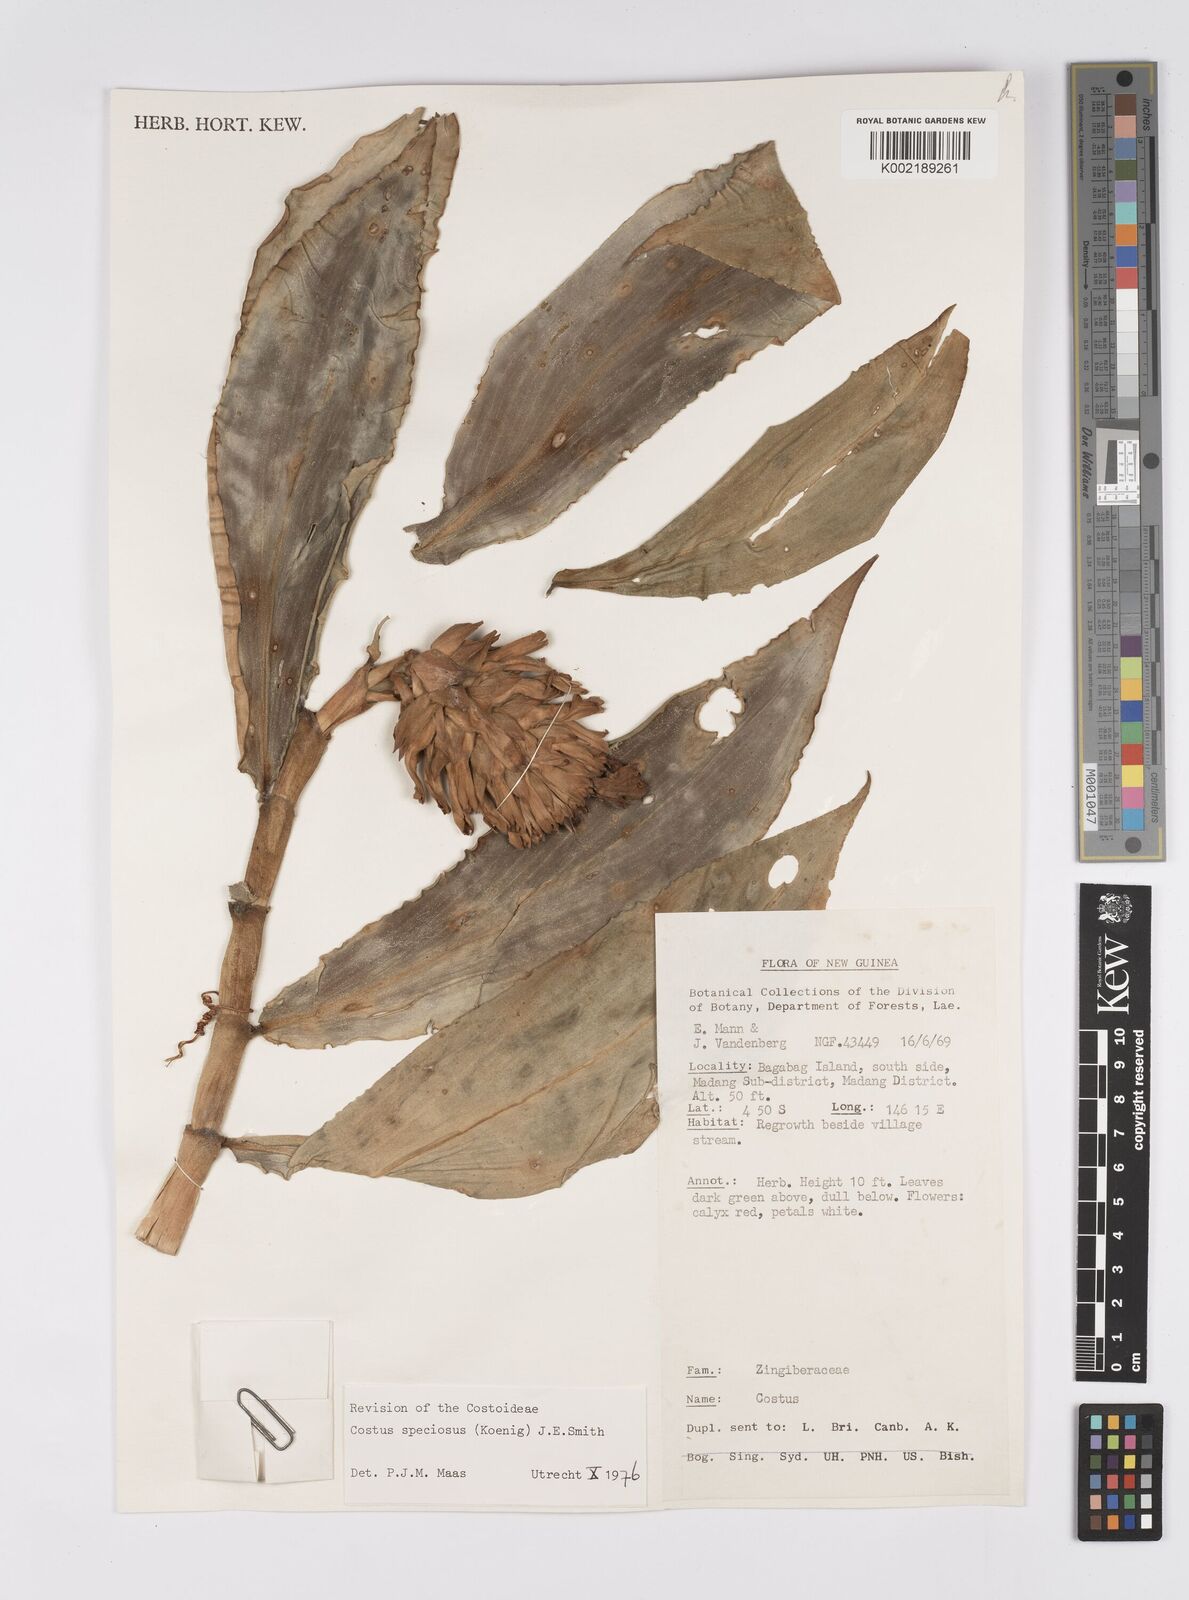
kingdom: Plantae
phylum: Tracheophyta
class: Liliopsida
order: Zingiberales
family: Costaceae
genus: Hellenia
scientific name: Hellenia speciosa
